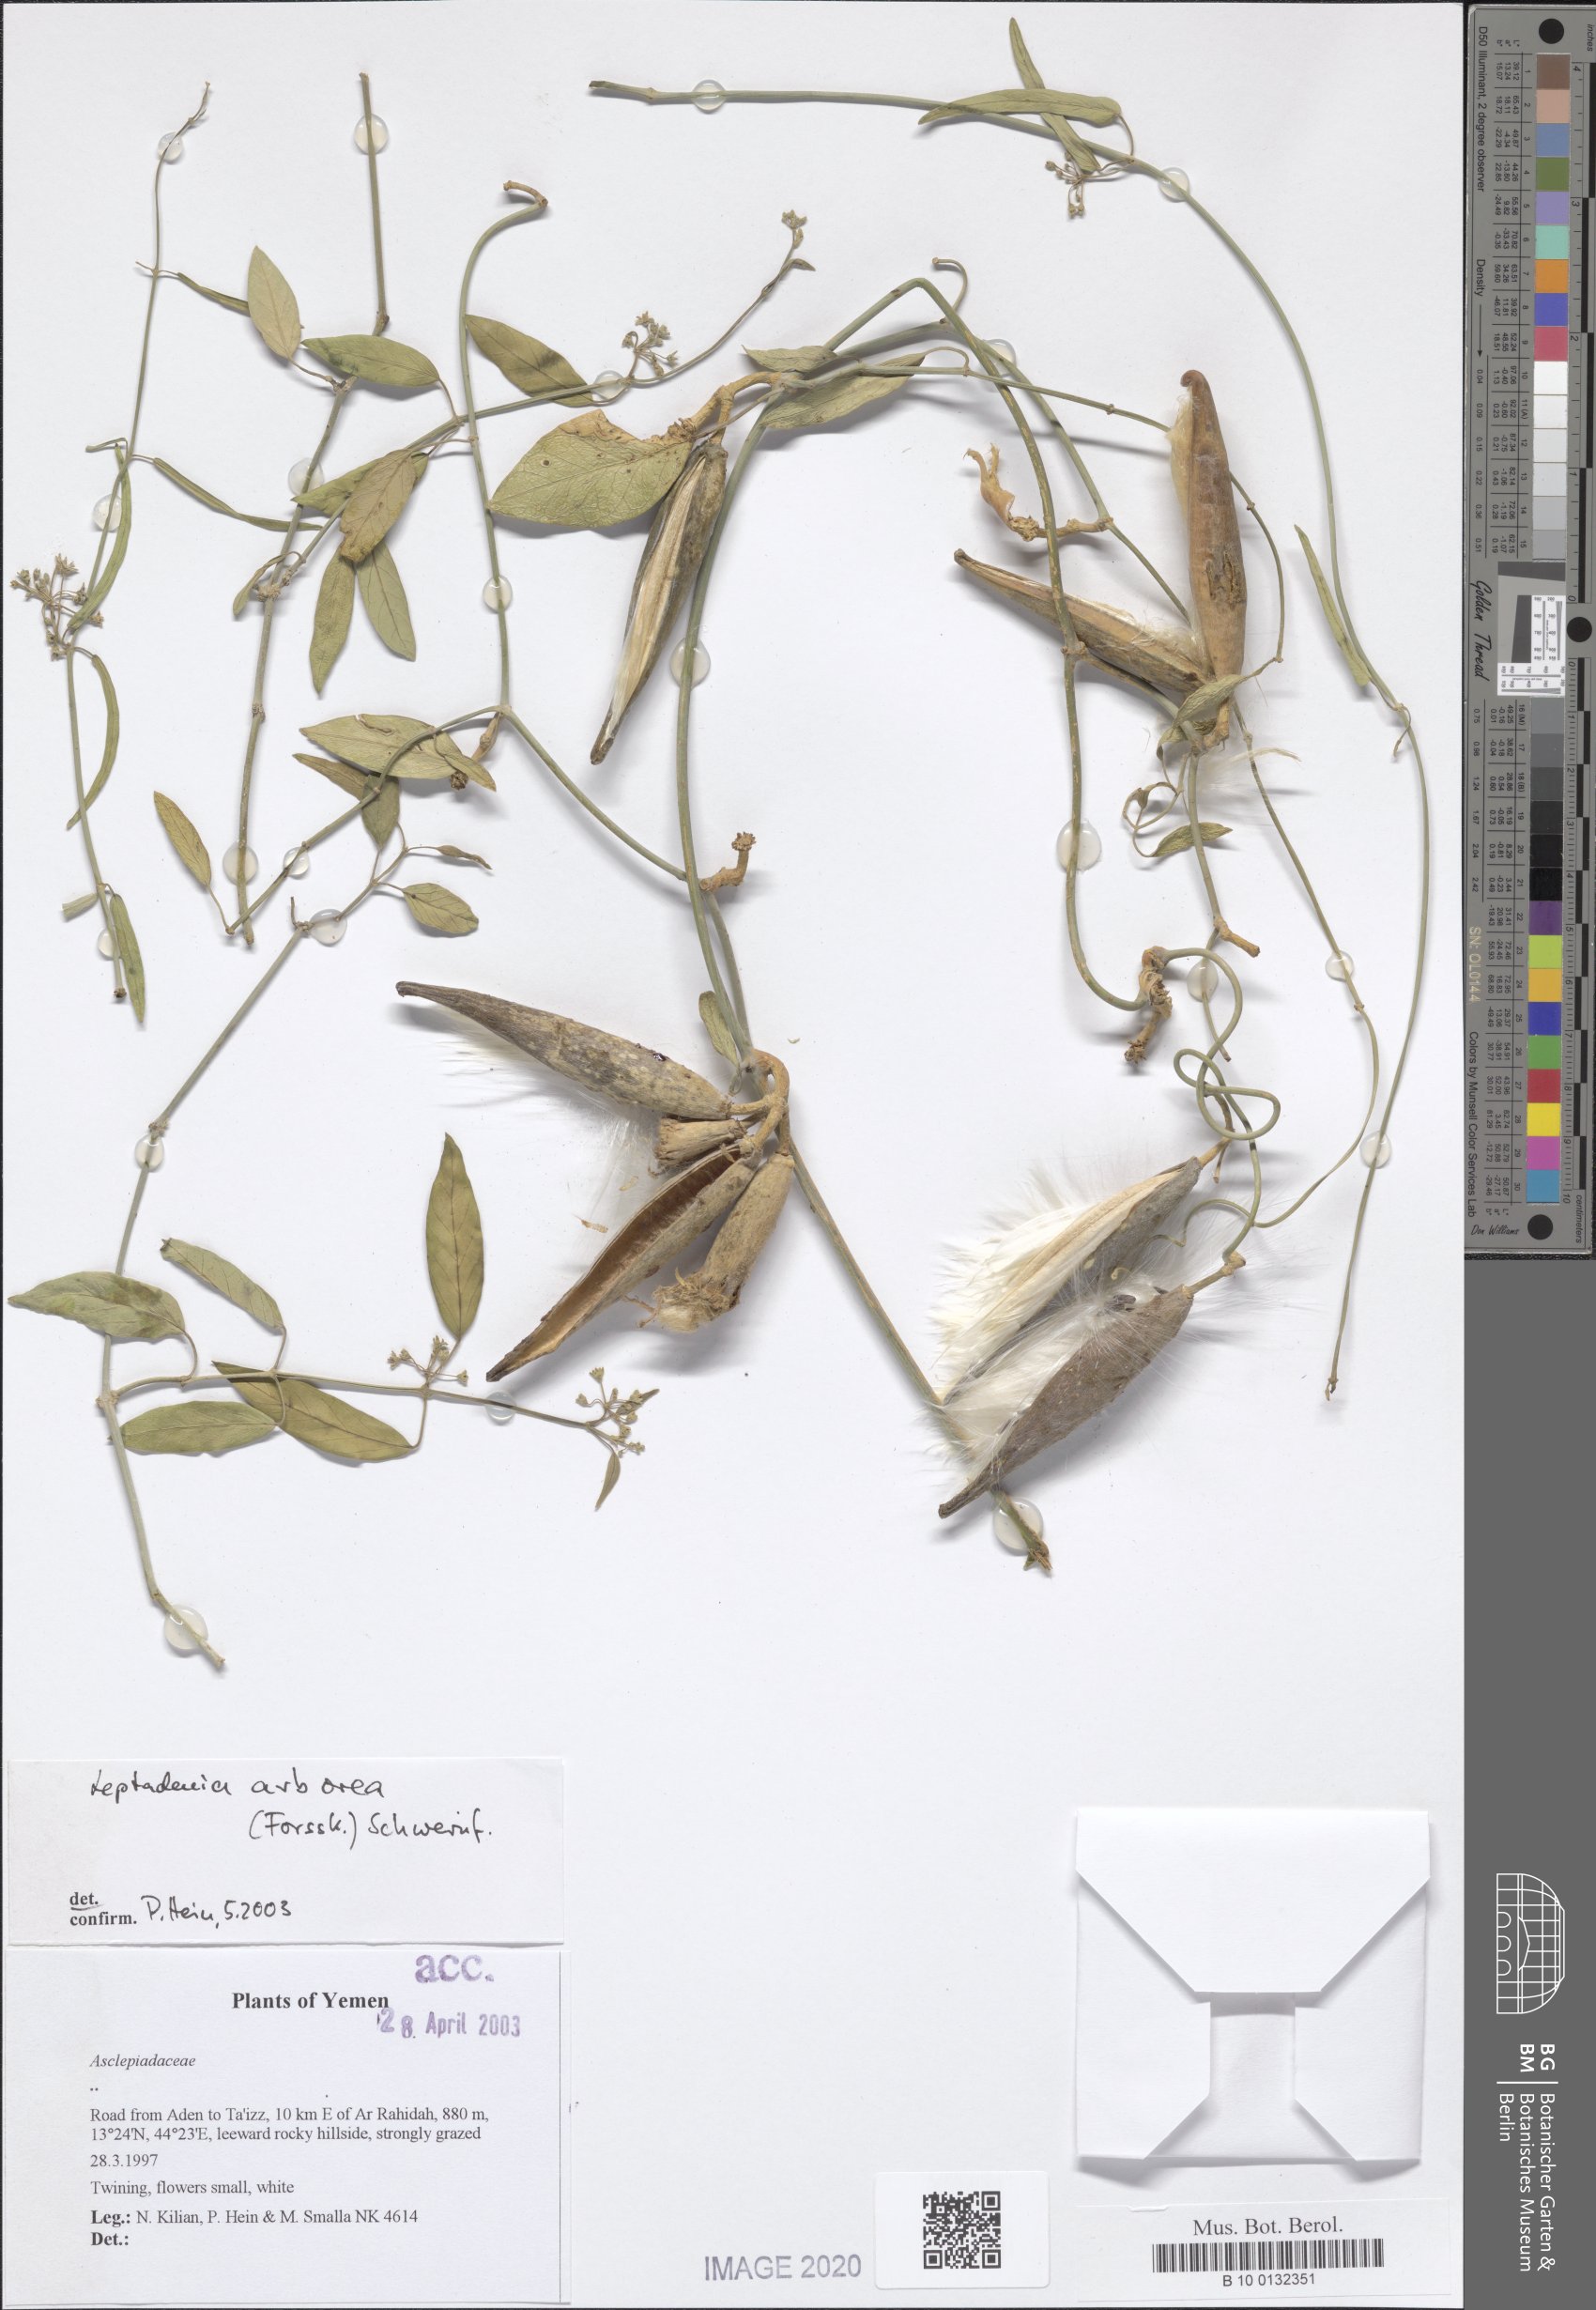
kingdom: Plantae
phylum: Tracheophyta
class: Magnoliopsida
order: Gentianales
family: Apocynaceae
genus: Leptadenia
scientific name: Leptadenia arborea
